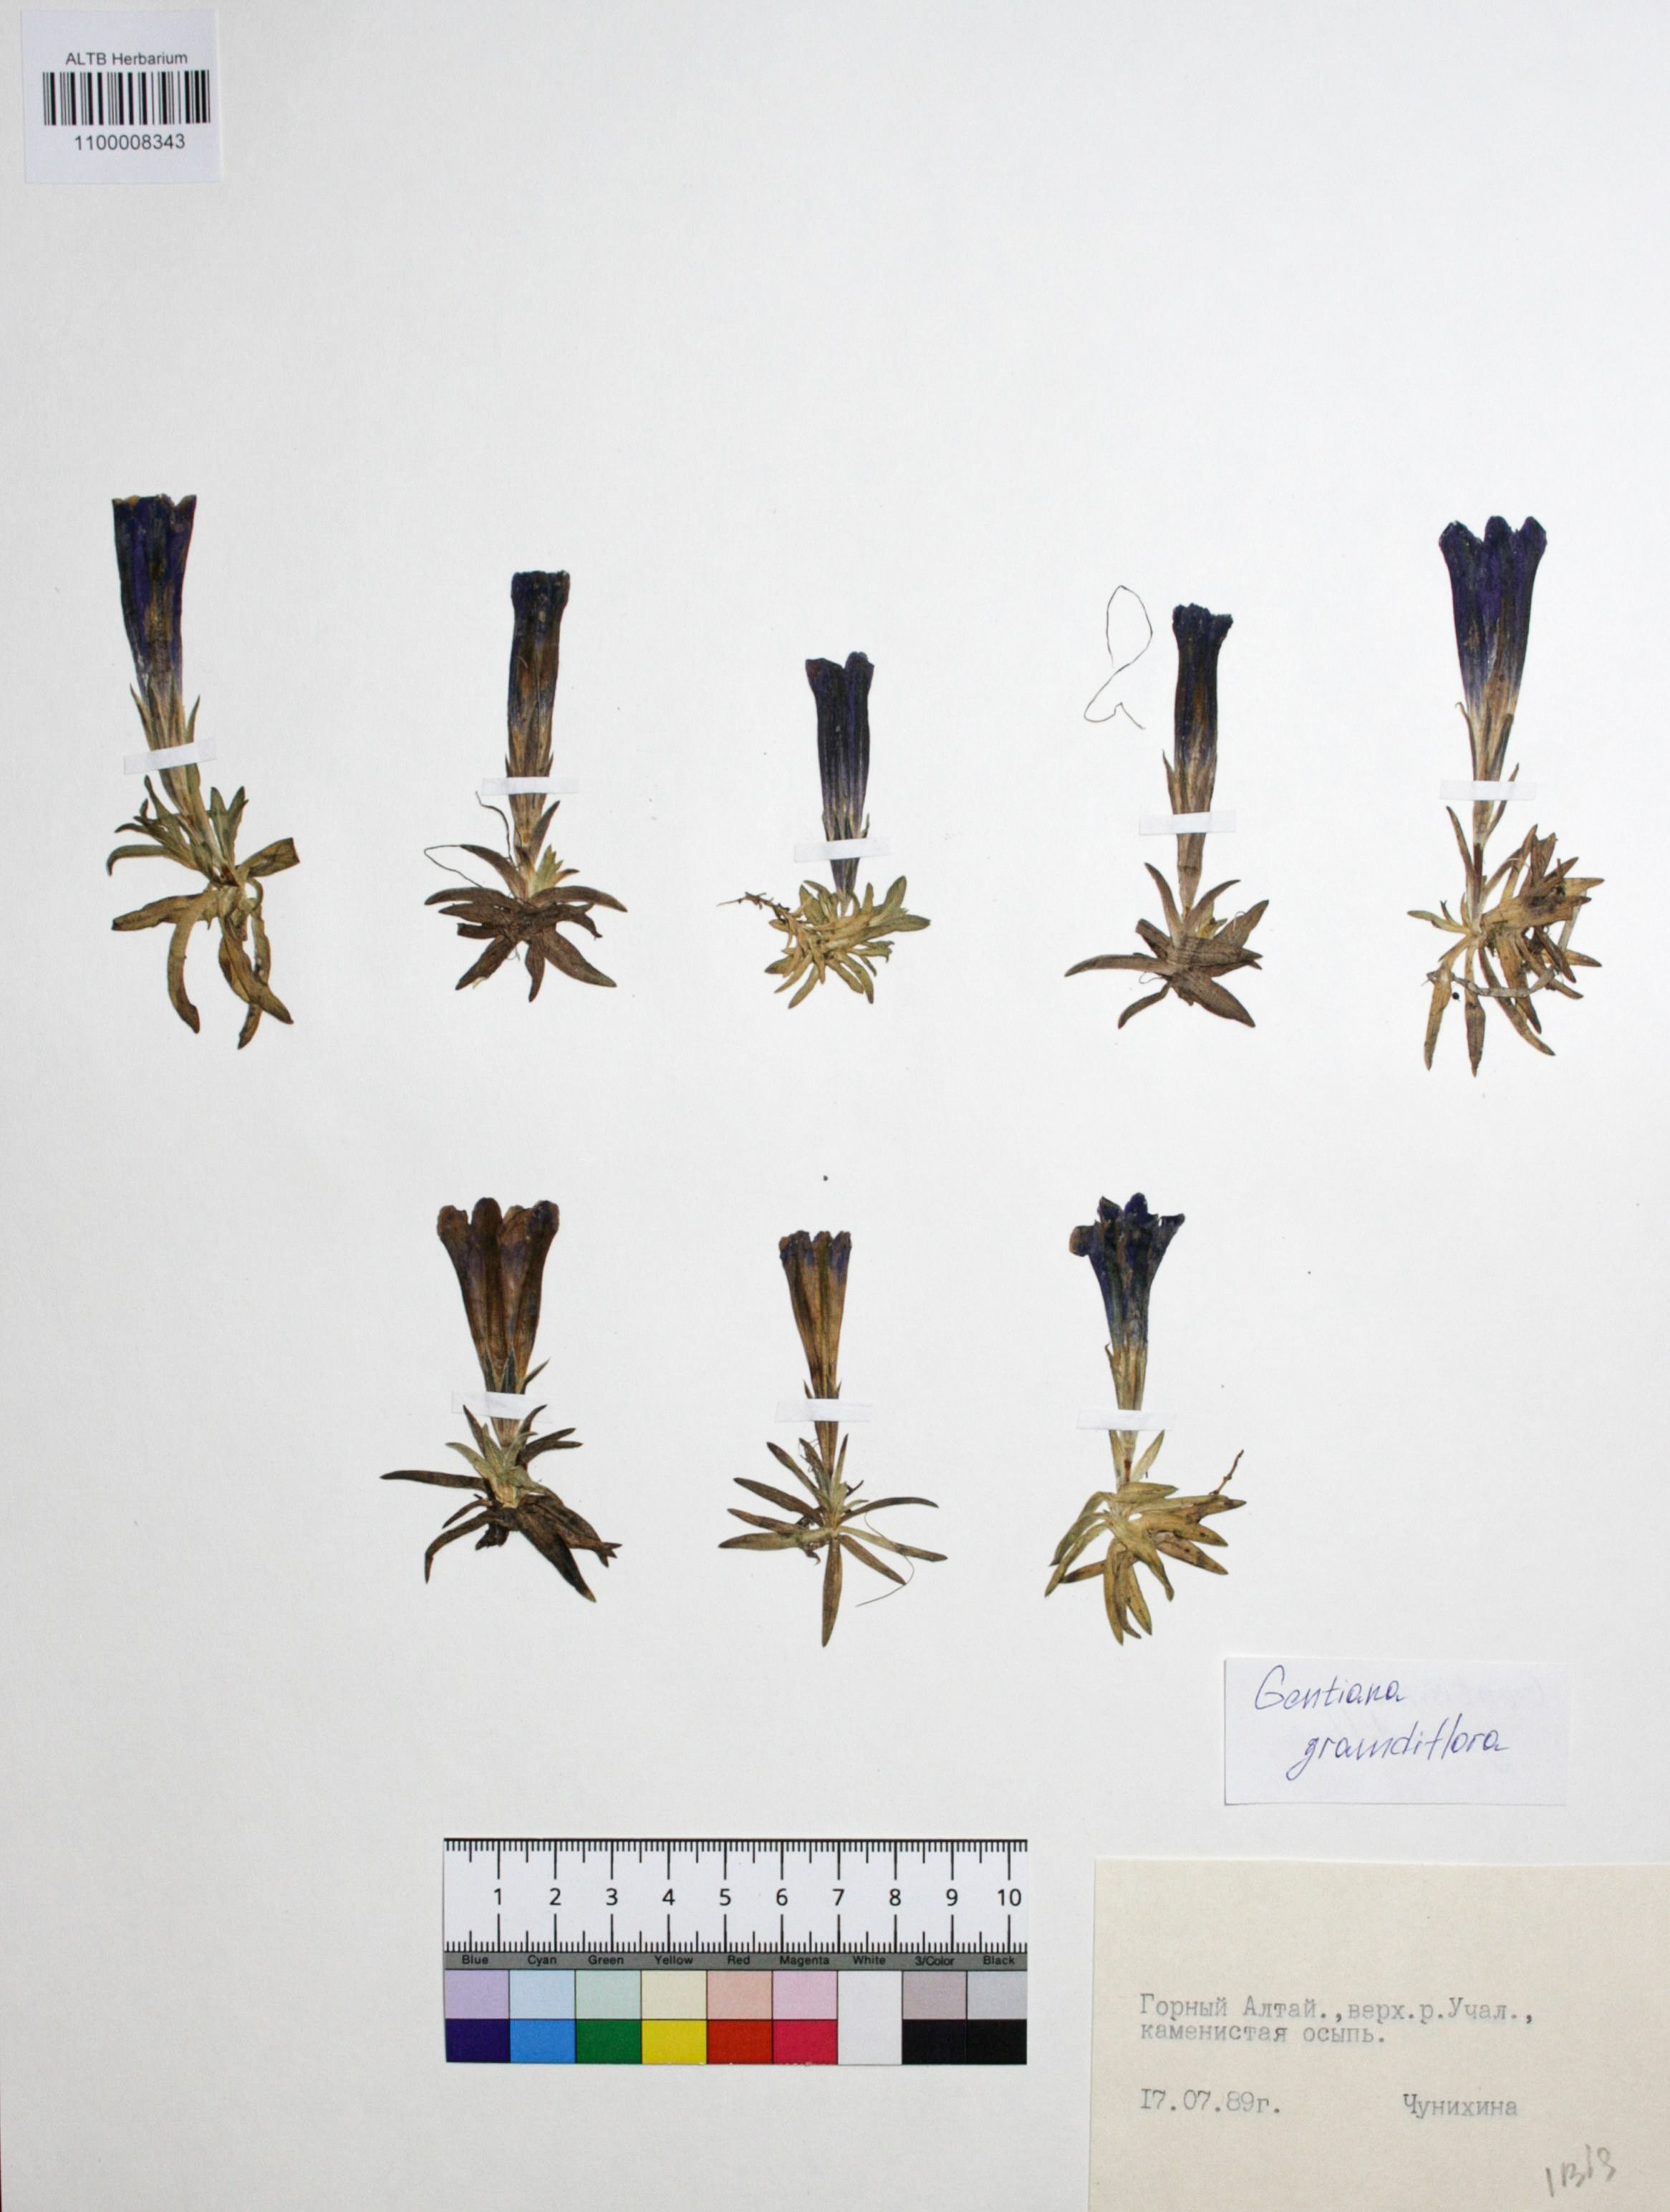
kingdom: Plantae
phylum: Tracheophyta
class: Magnoliopsida
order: Gentianales
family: Gentianaceae
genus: Gentiana
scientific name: Gentiana grandiflora
